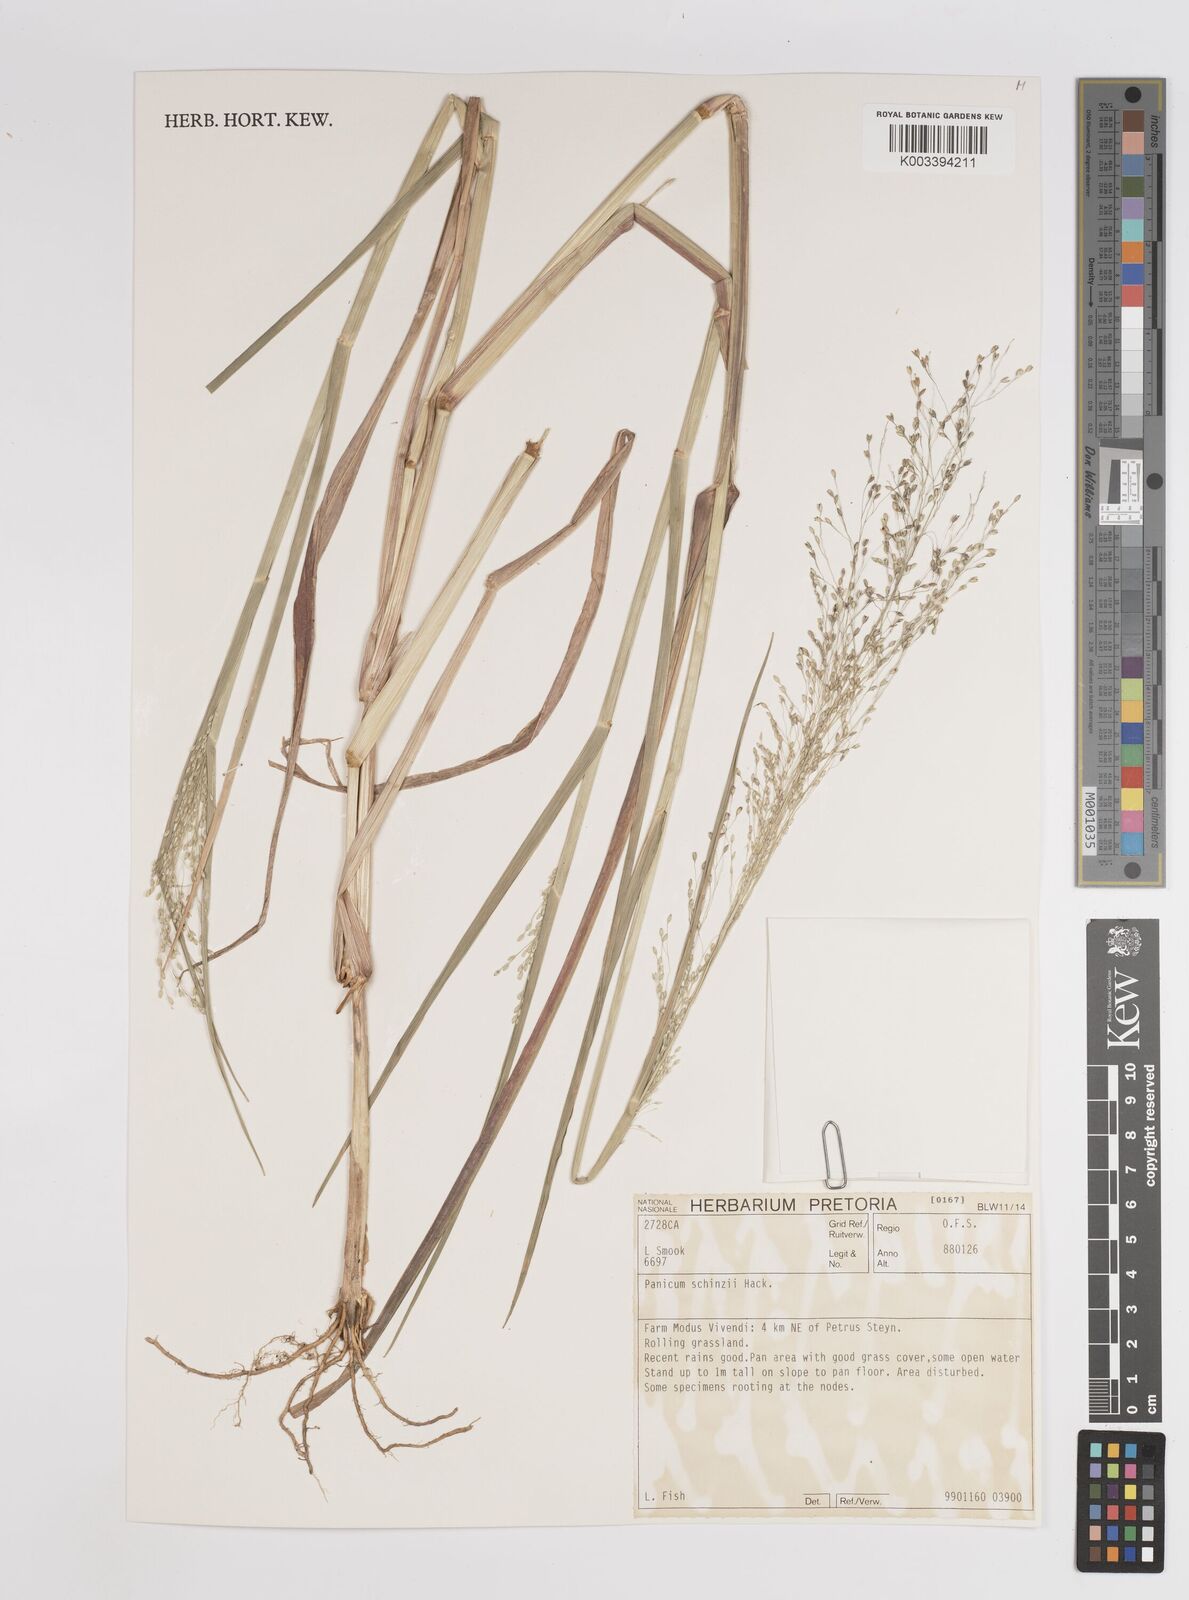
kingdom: Plantae
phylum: Tracheophyta
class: Liliopsida
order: Poales
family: Poaceae
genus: Panicum
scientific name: Panicum schinzii
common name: Sweet grass
